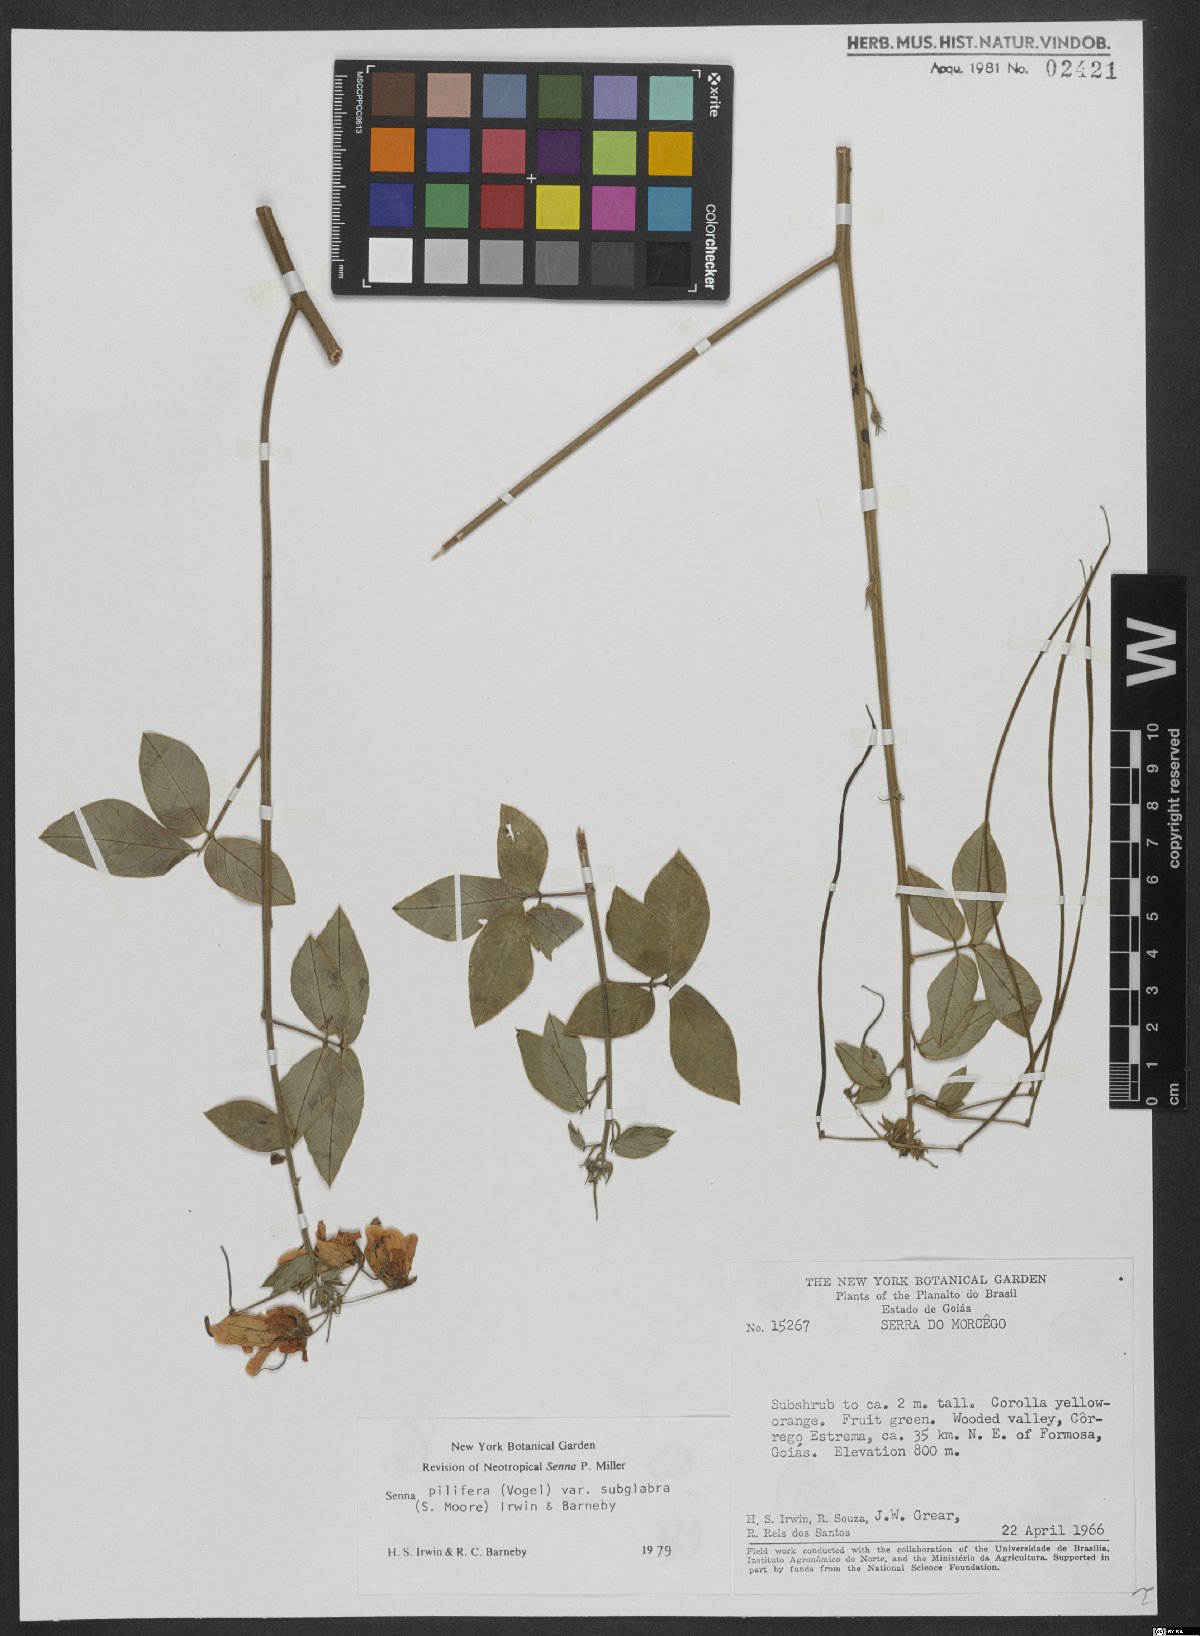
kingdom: Plantae
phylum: Tracheophyta
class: Magnoliopsida
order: Fabales
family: Fabaceae
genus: Senna
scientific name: Senna pilifera
